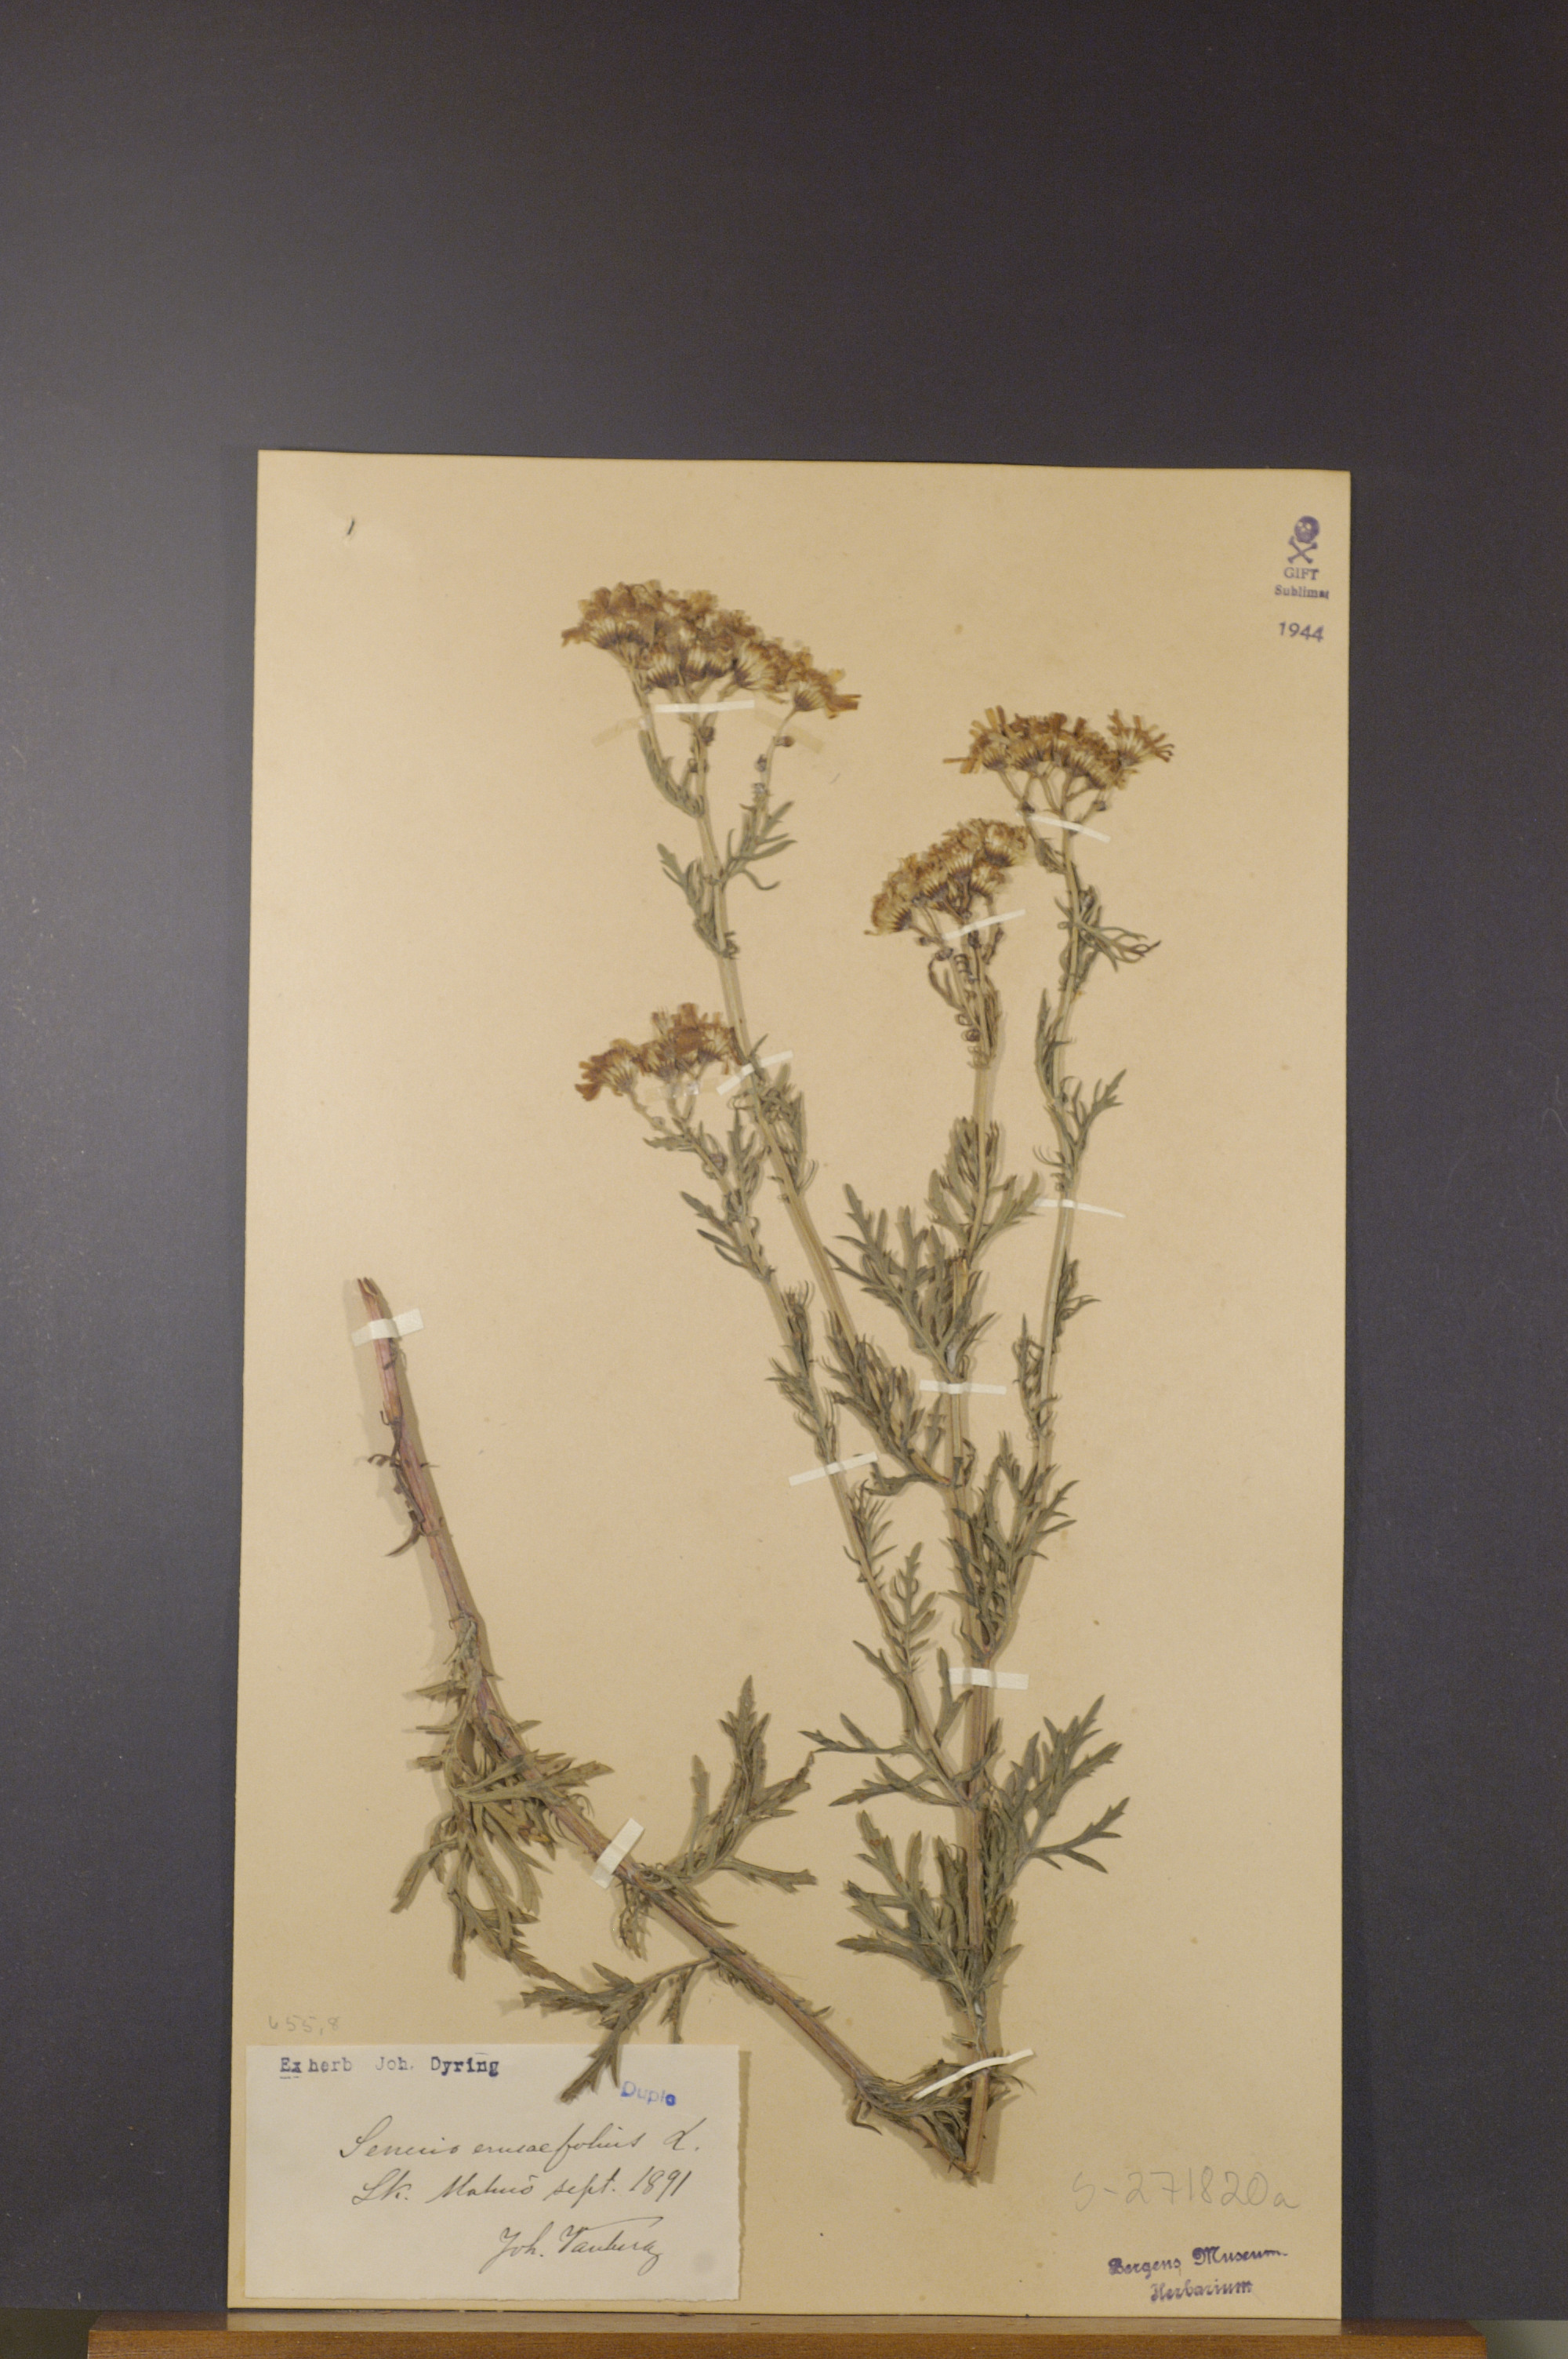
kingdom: Plantae
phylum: Tracheophyta
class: Magnoliopsida
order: Asterales
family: Asteraceae
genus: Jacobaea
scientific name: Jacobaea erucifolia
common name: Hoary ragwort
